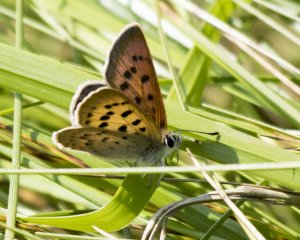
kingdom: Animalia
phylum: Arthropoda
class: Insecta
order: Lepidoptera
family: Lycaenidae
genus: Epidemia
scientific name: Epidemia dorcas
